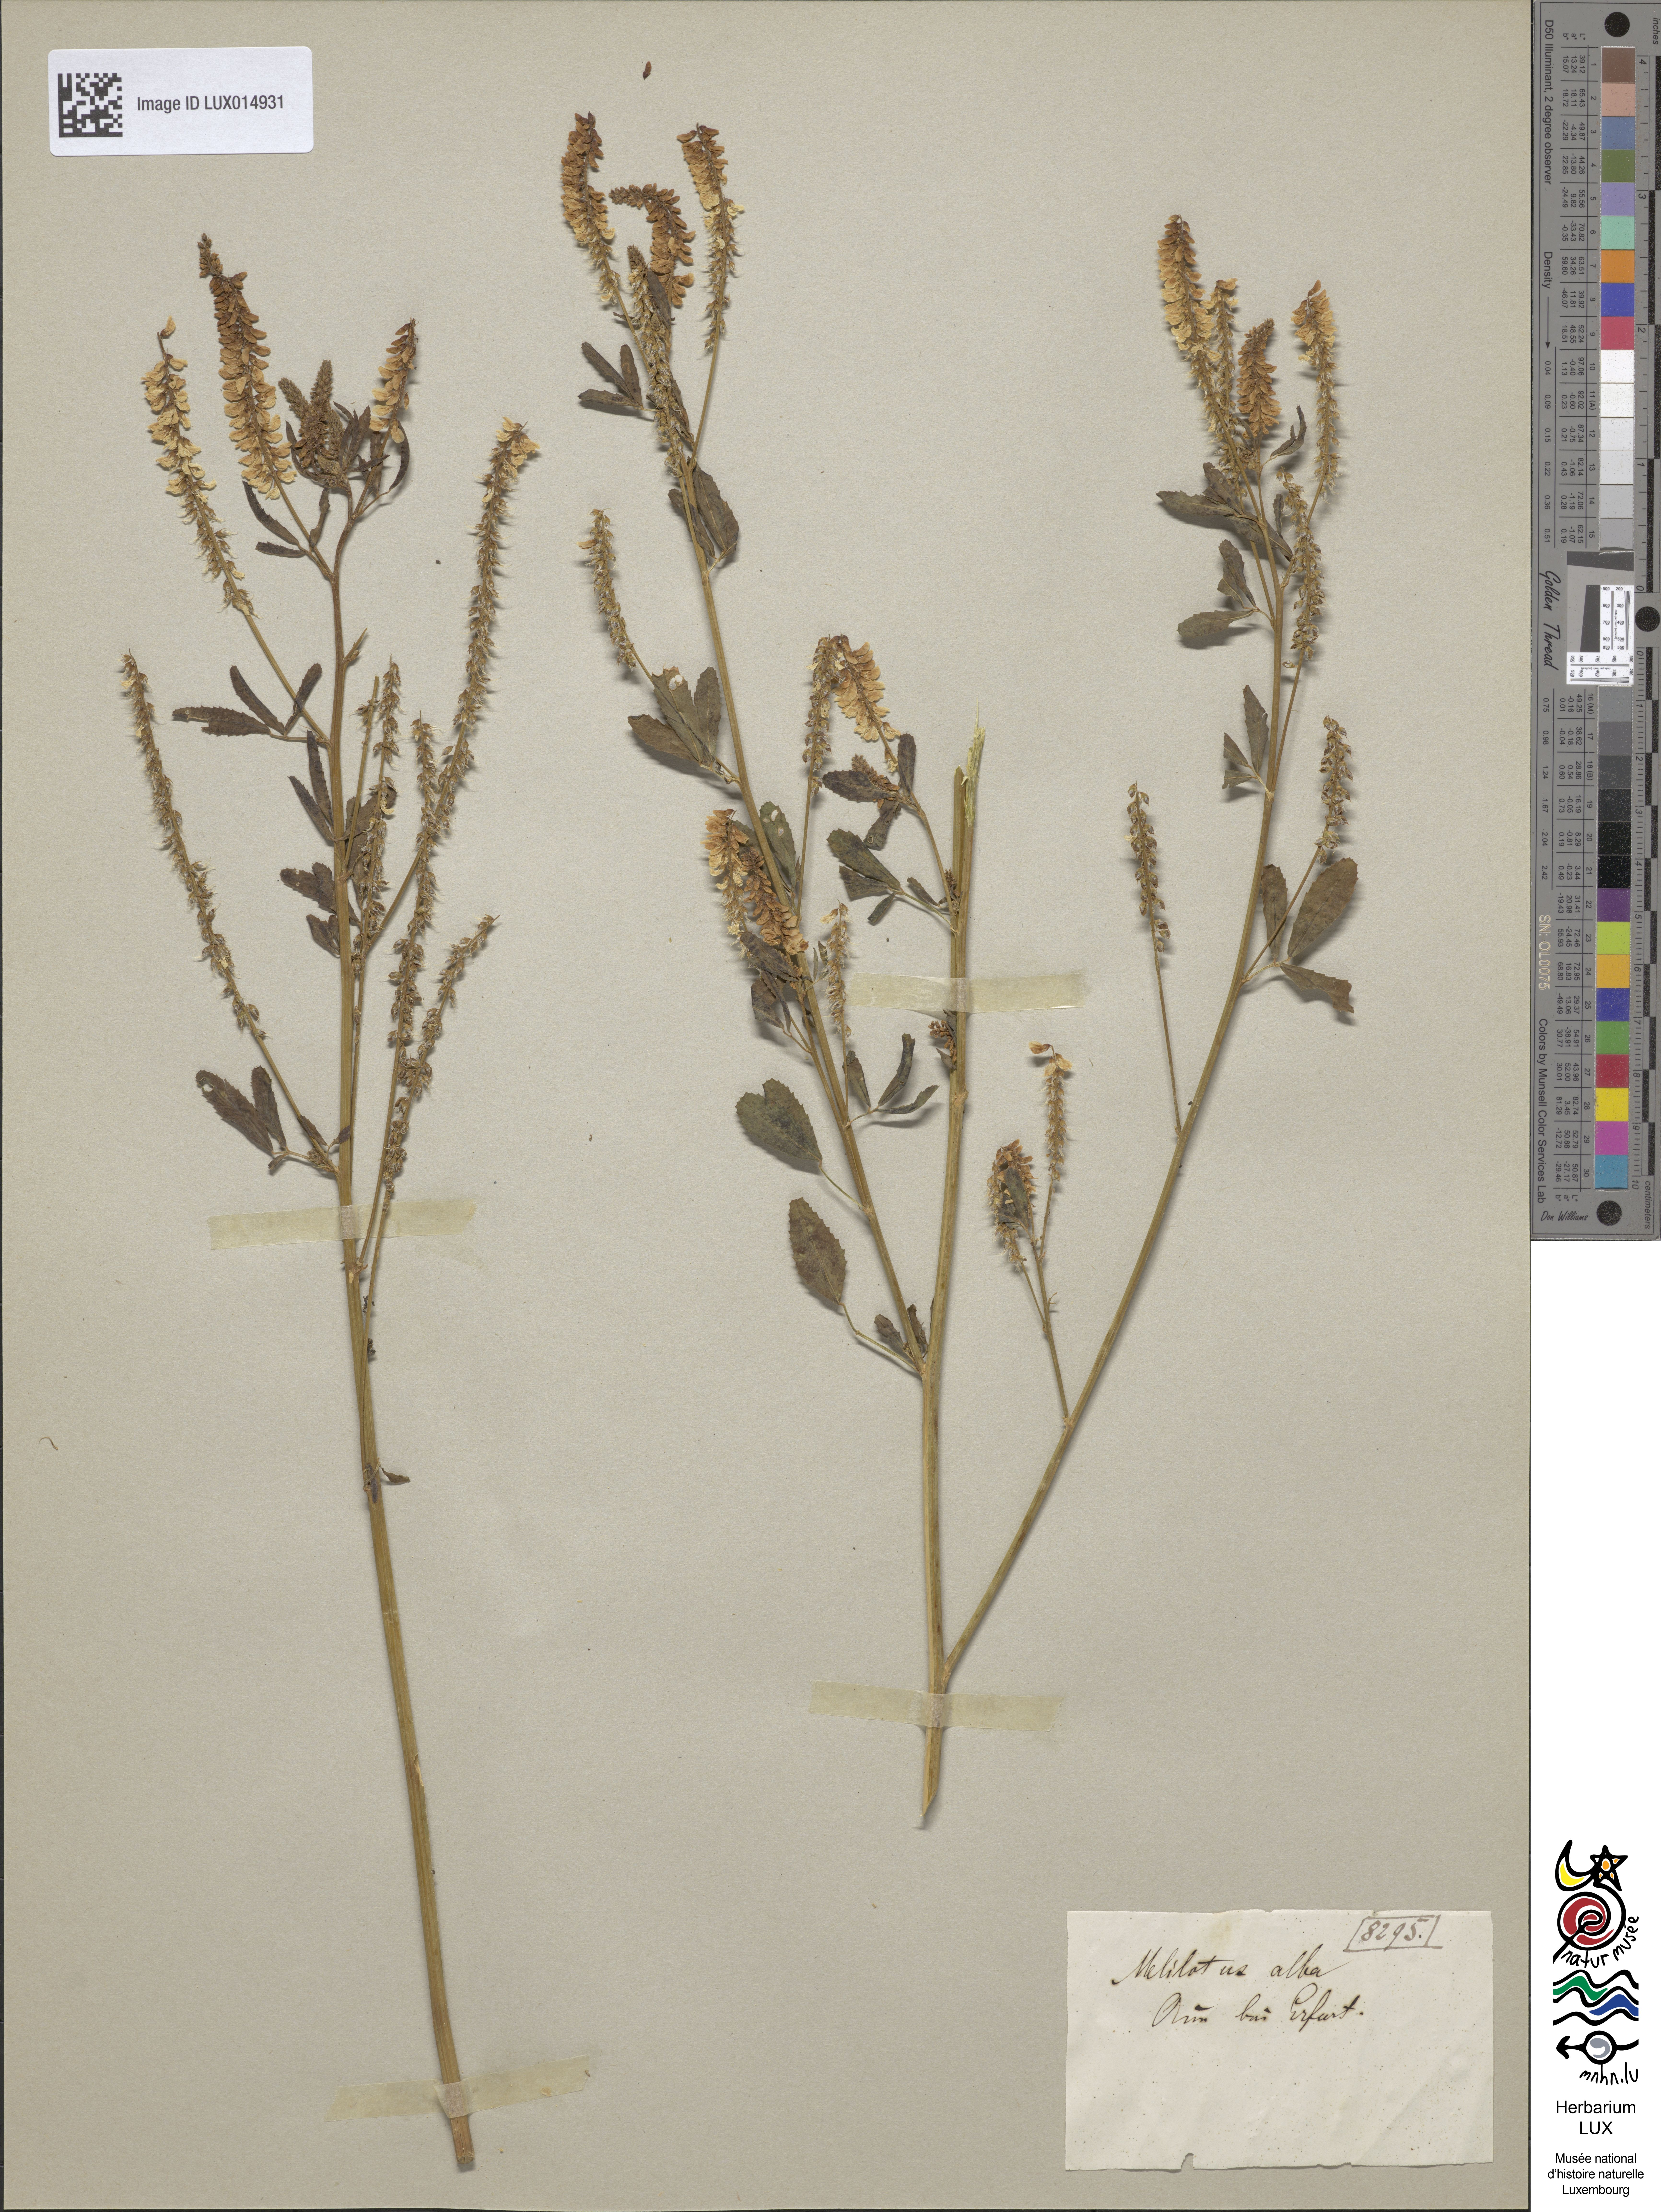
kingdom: Plantae
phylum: Tracheophyta
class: Magnoliopsida
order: Fabales
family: Fabaceae
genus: Melilotus
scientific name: Melilotus albus
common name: White melilot
